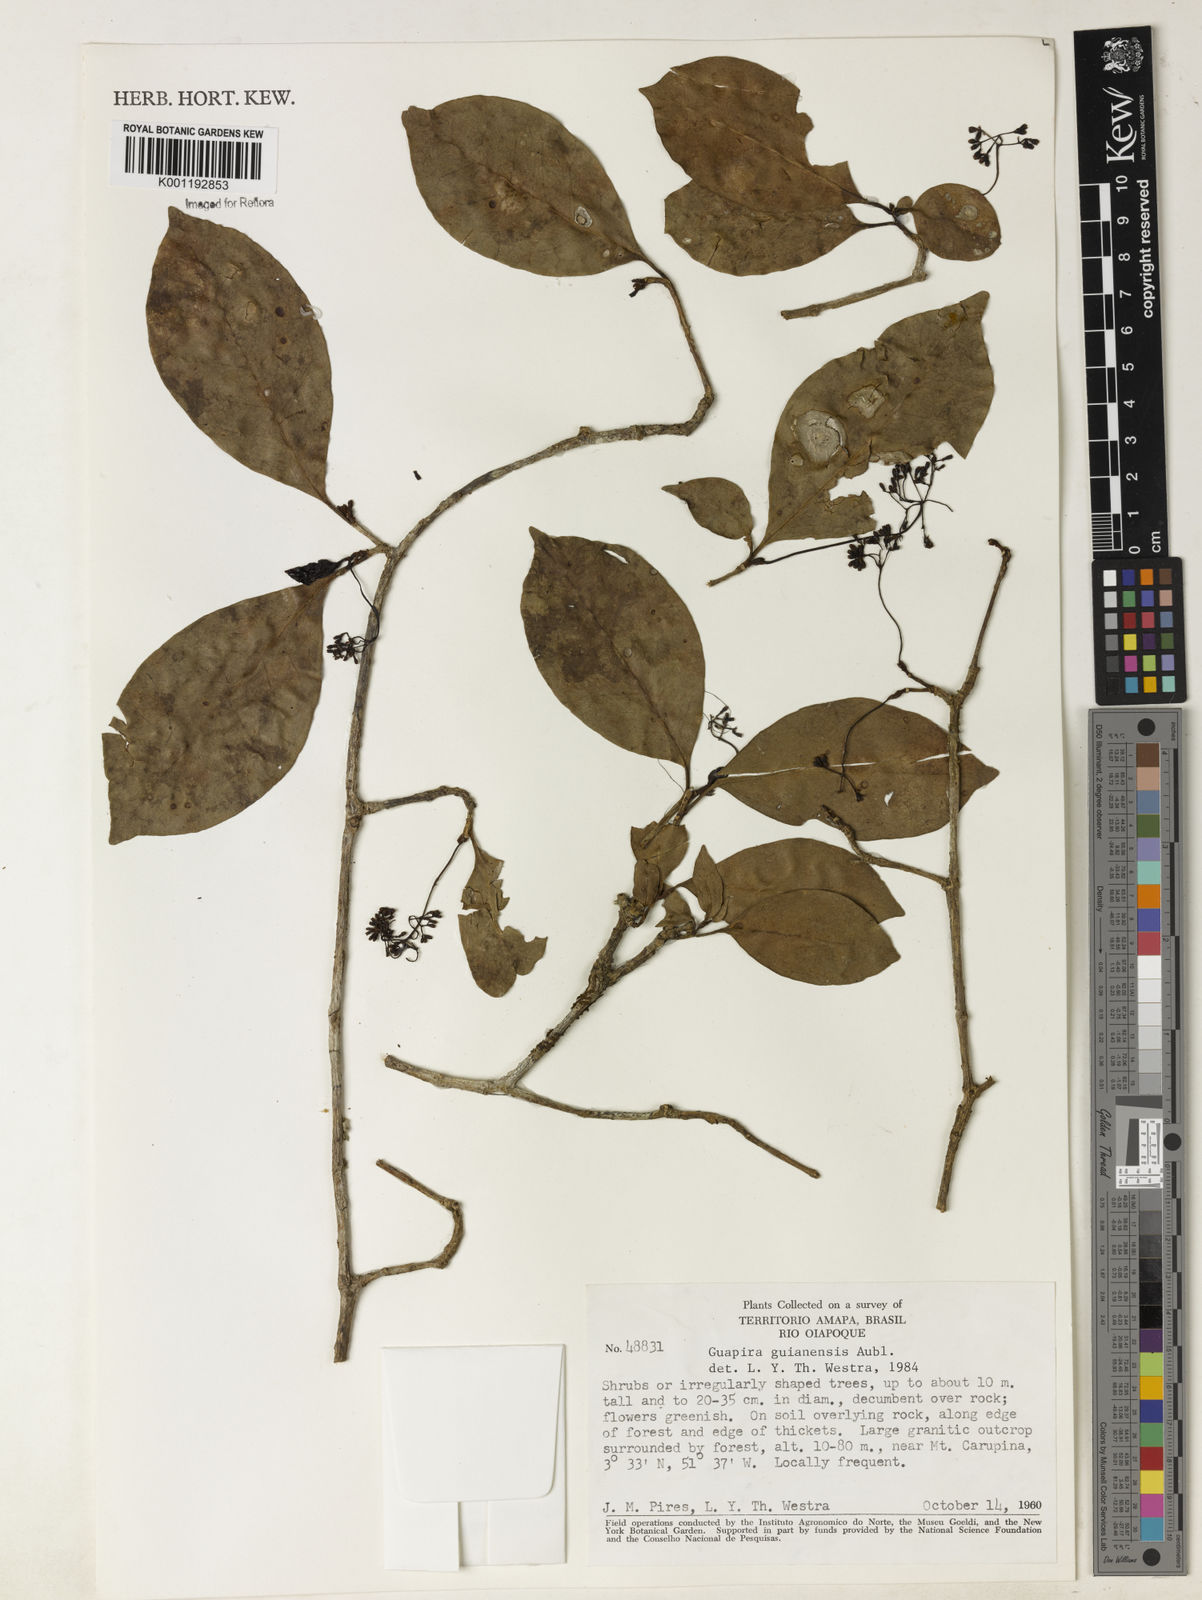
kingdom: Plantae
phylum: Tracheophyta
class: Magnoliopsida
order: Caryophyllales
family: Nyctaginaceae
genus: Guapira
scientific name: Guapira
